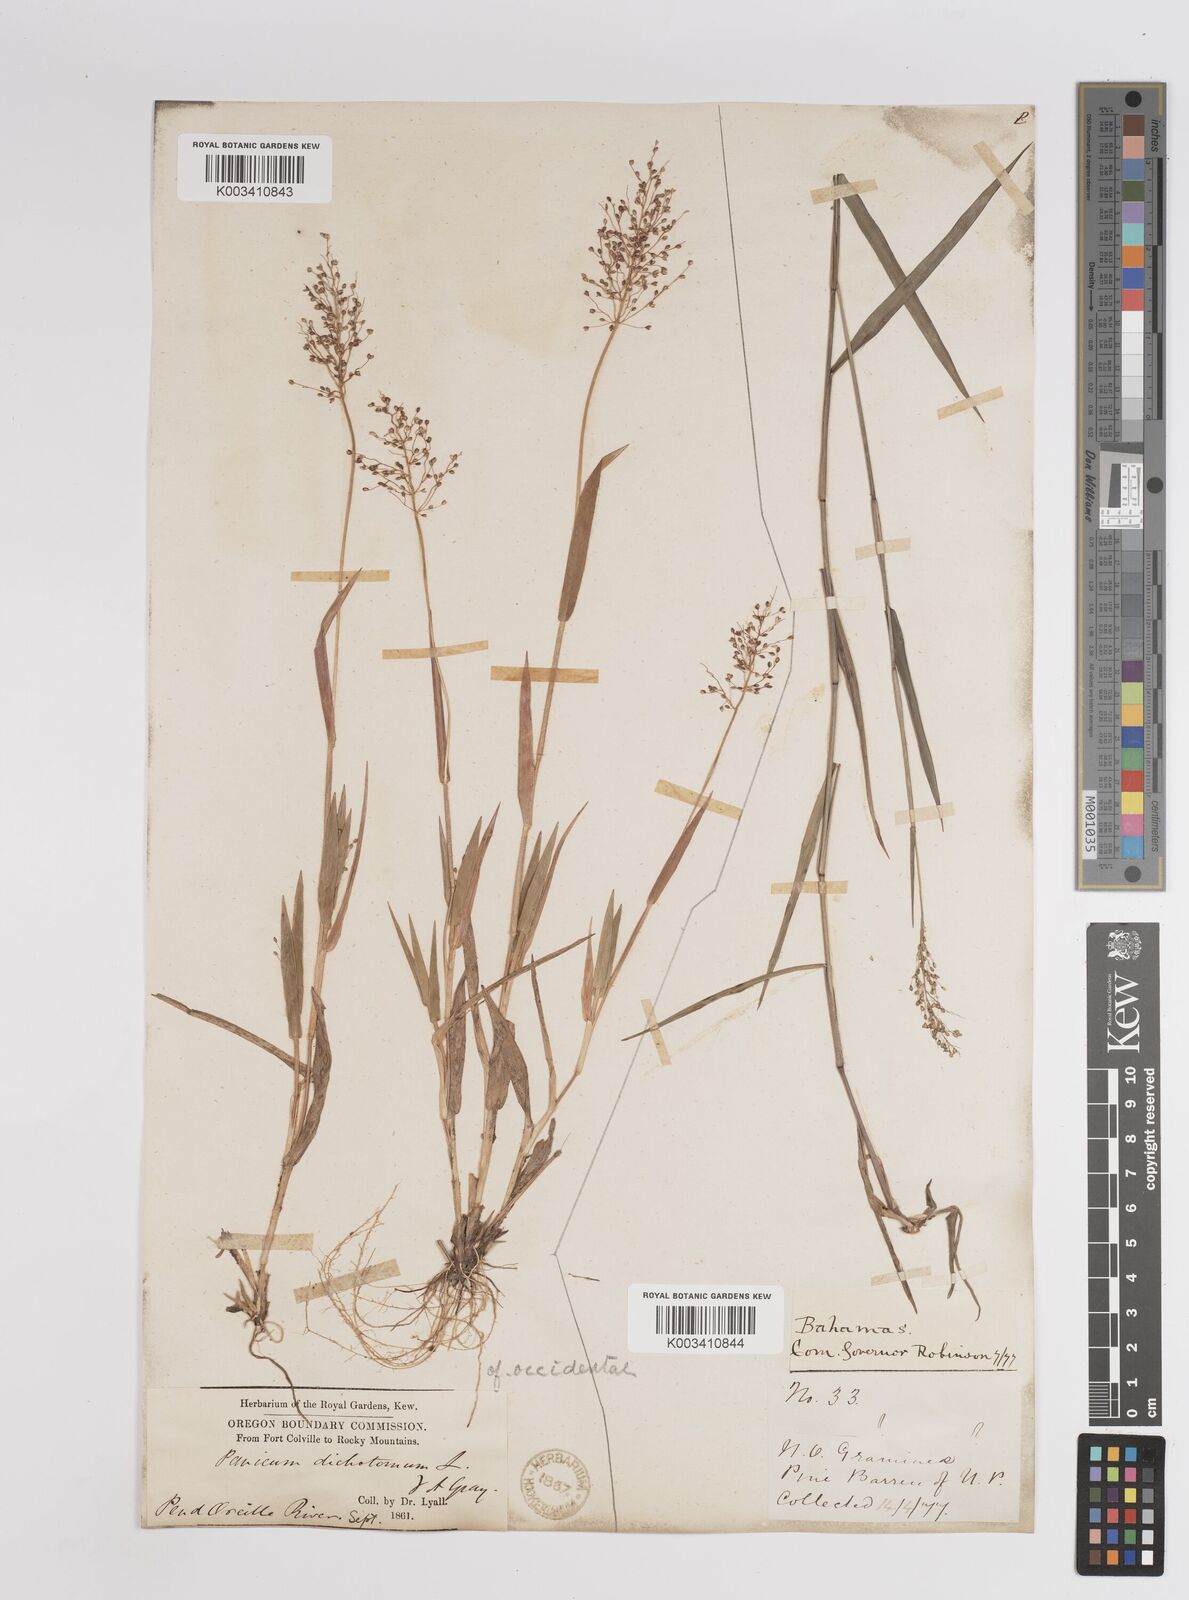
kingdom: Plantae
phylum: Tracheophyta
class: Liliopsida
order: Poales
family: Poaceae
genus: Dichanthelium
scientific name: Dichanthelium implicatum
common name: Slender-stemmed panicgrass
